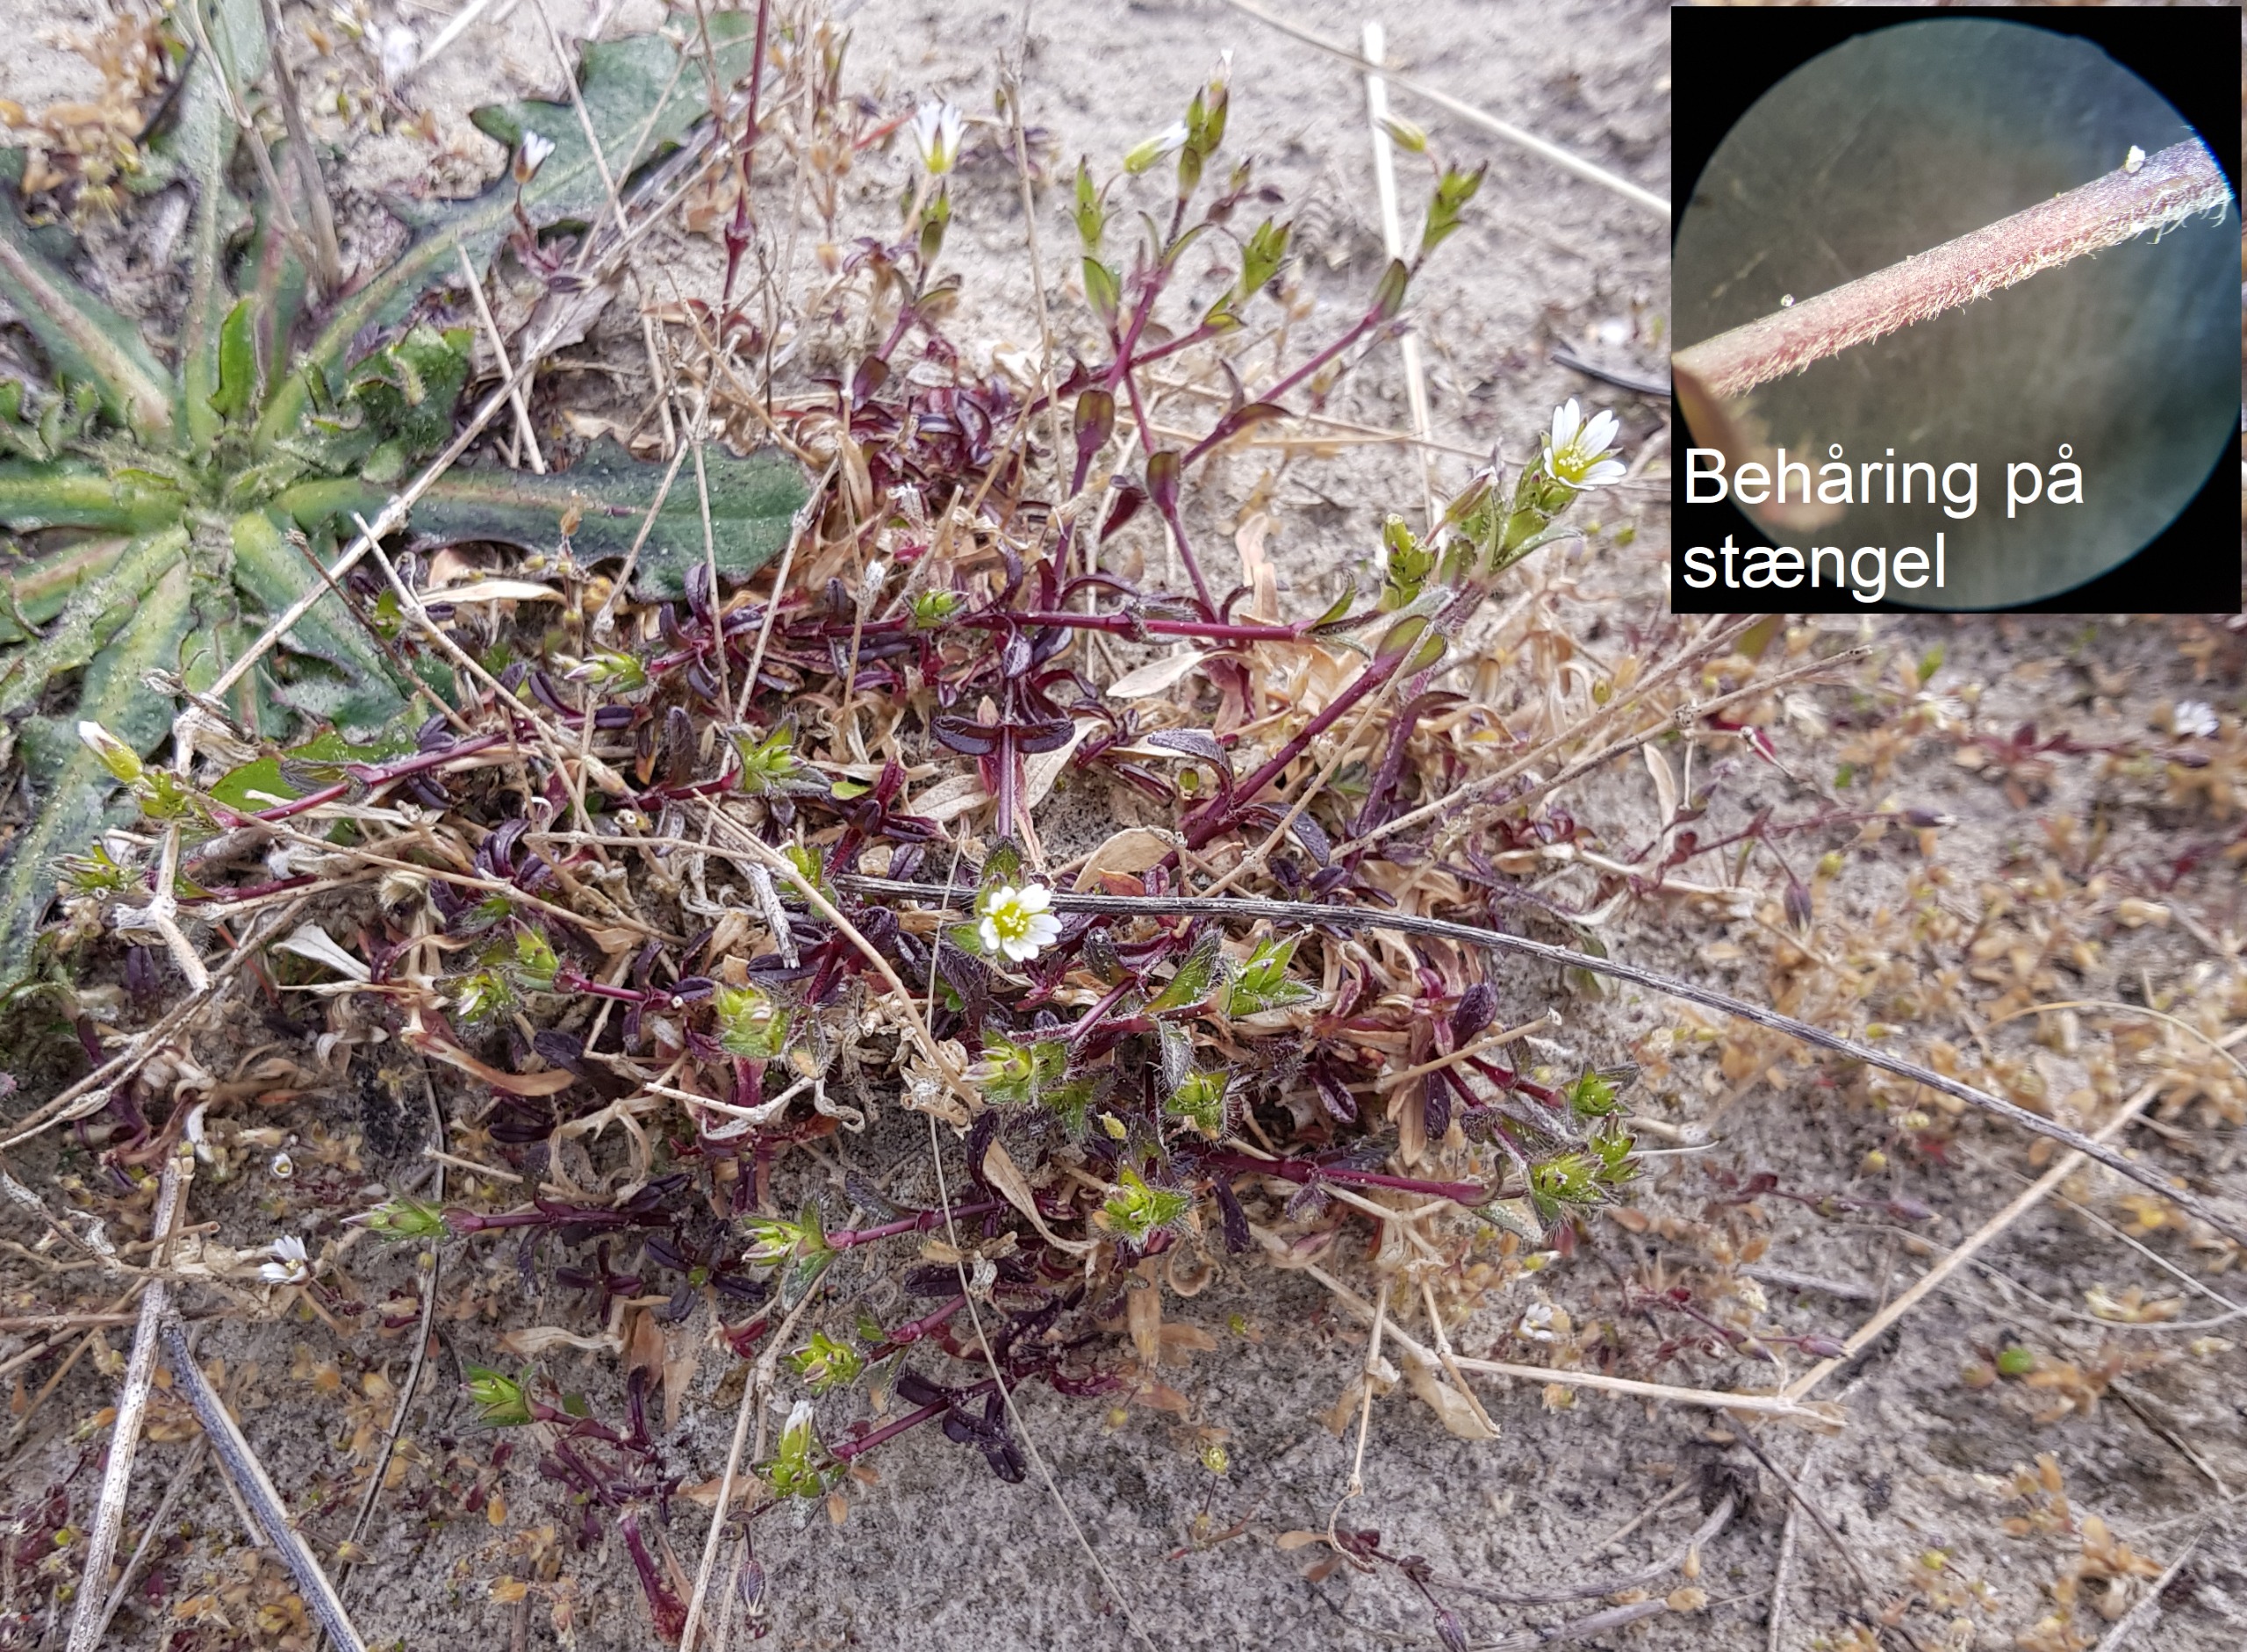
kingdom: Plantae
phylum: Tracheophyta
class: Magnoliopsida
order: Caryophyllales
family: Caryophyllaceae
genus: Cerastium
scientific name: Cerastium holosteoides
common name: Ensidig hønsetarm
